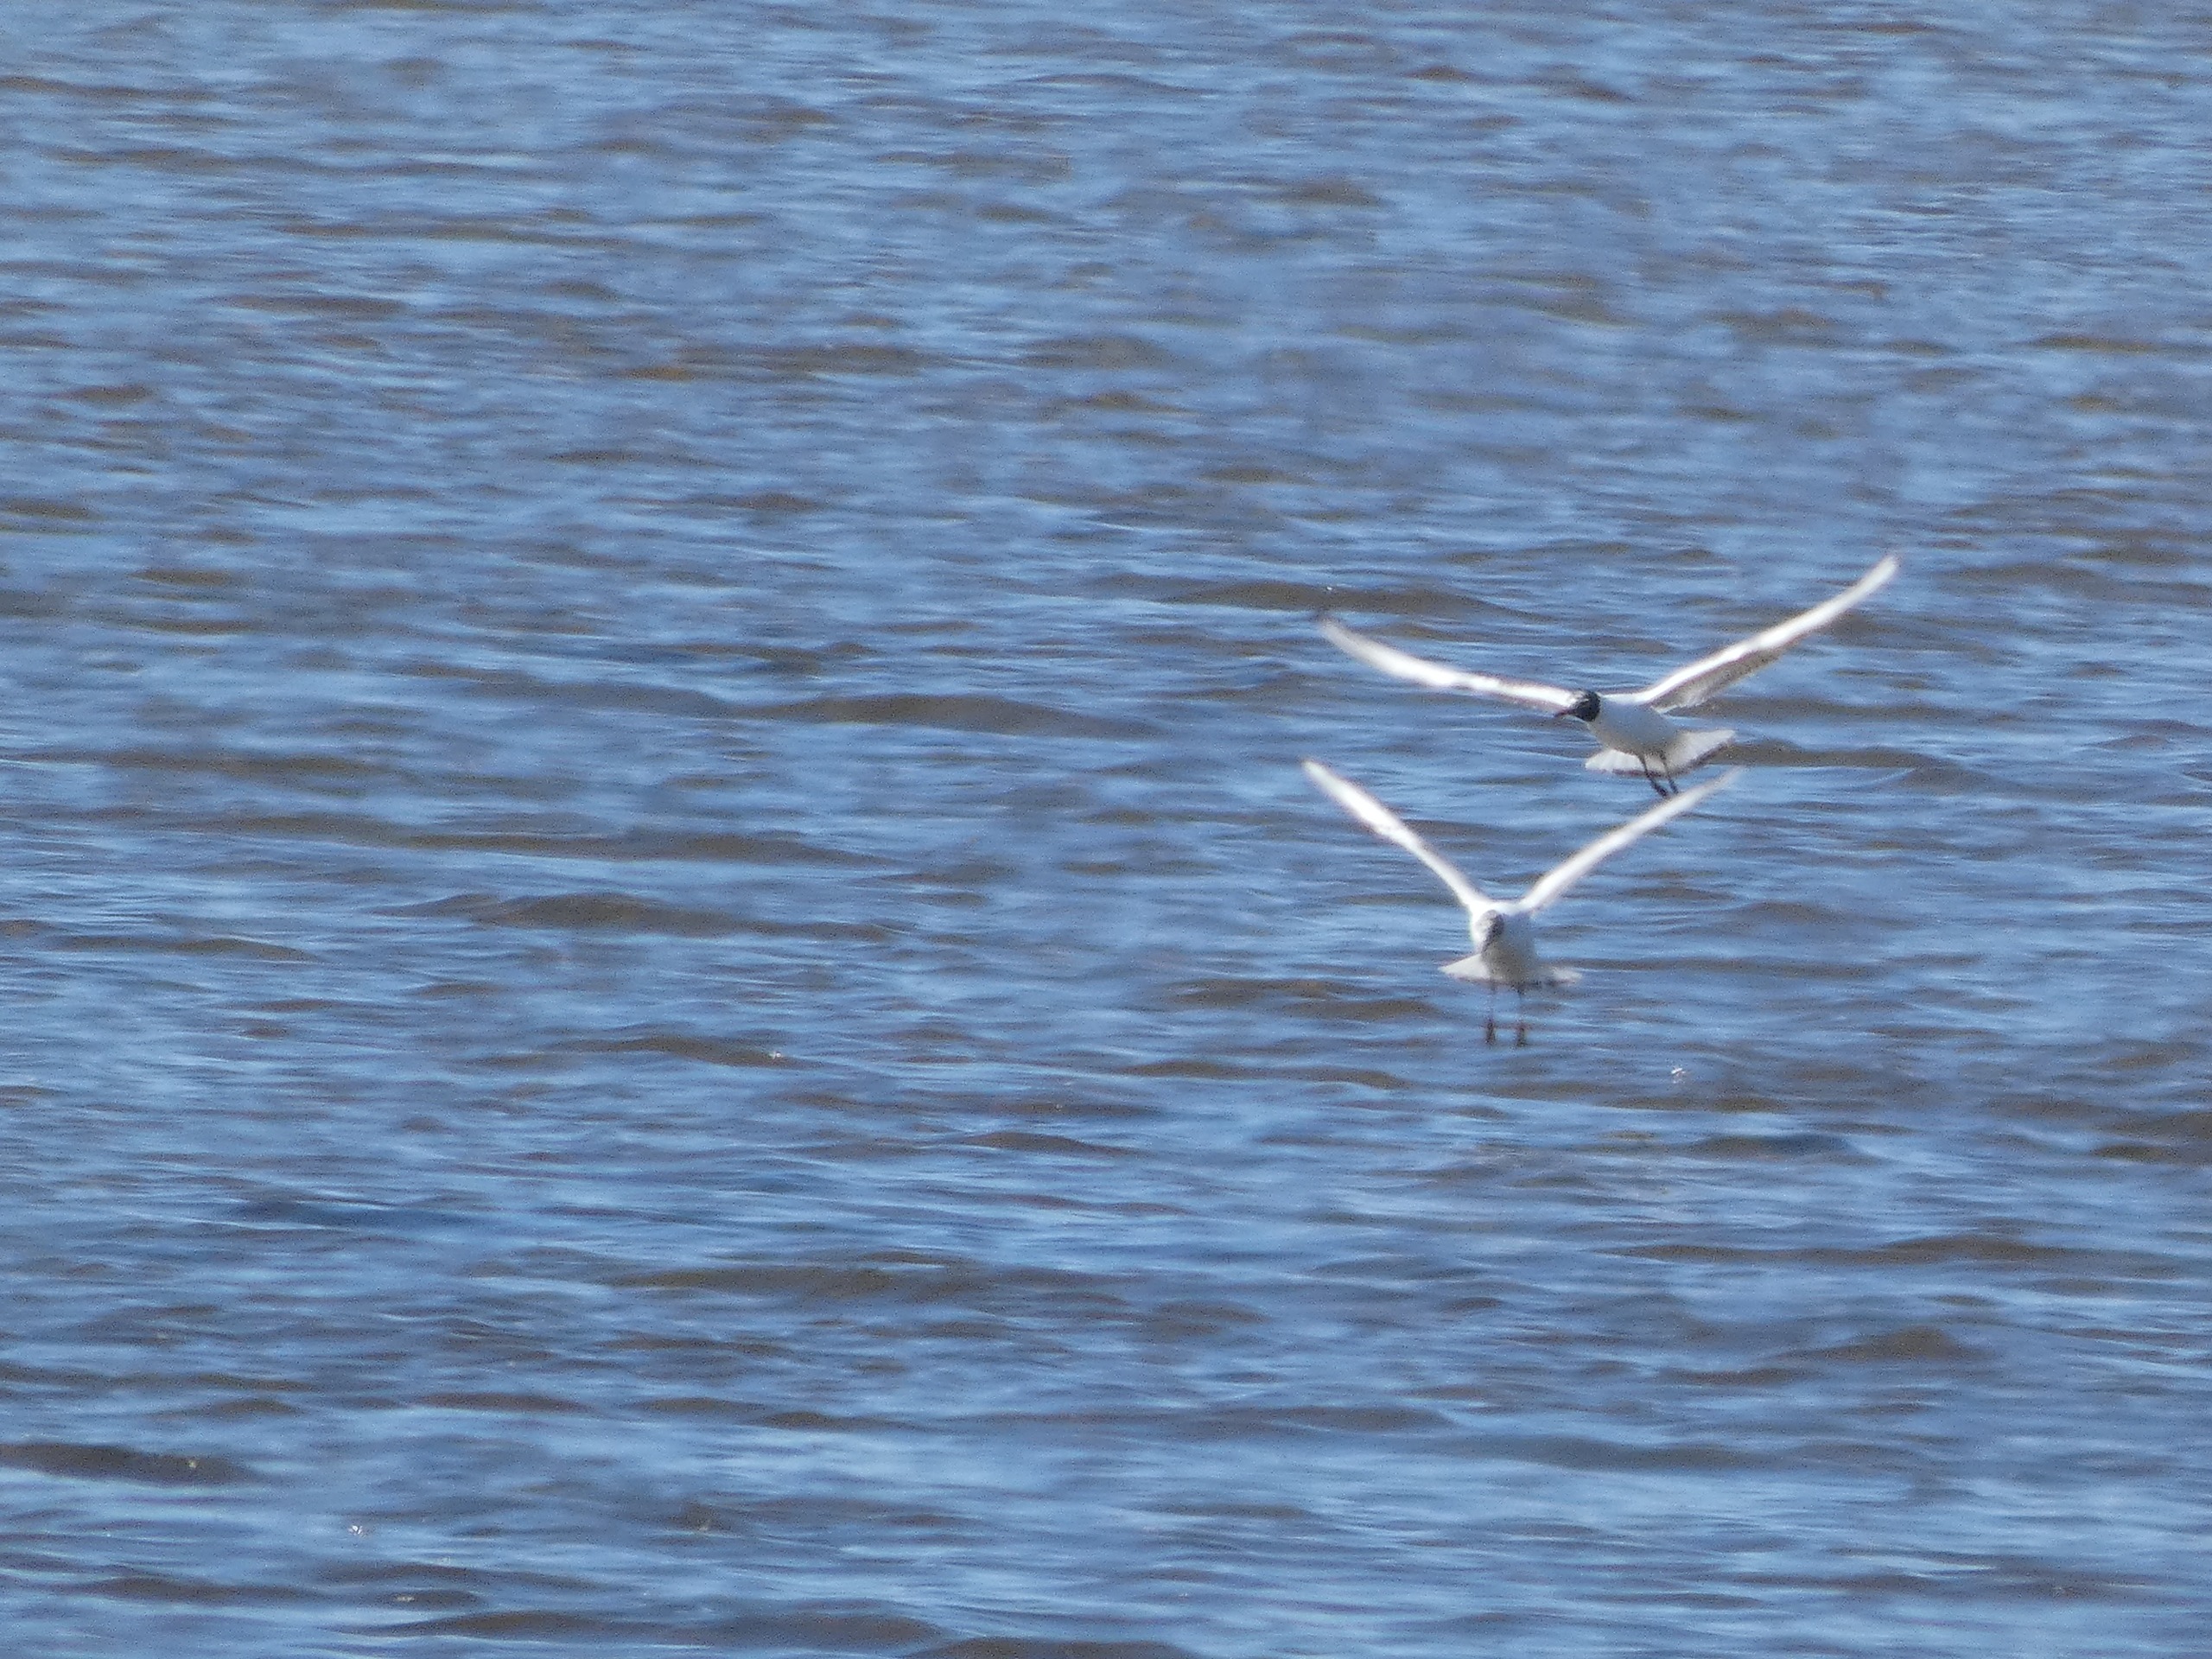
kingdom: Animalia
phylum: Chordata
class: Aves
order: Charadriiformes
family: Laridae
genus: Chroicocephalus
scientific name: Chroicocephalus ridibundus
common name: Hættemåge
